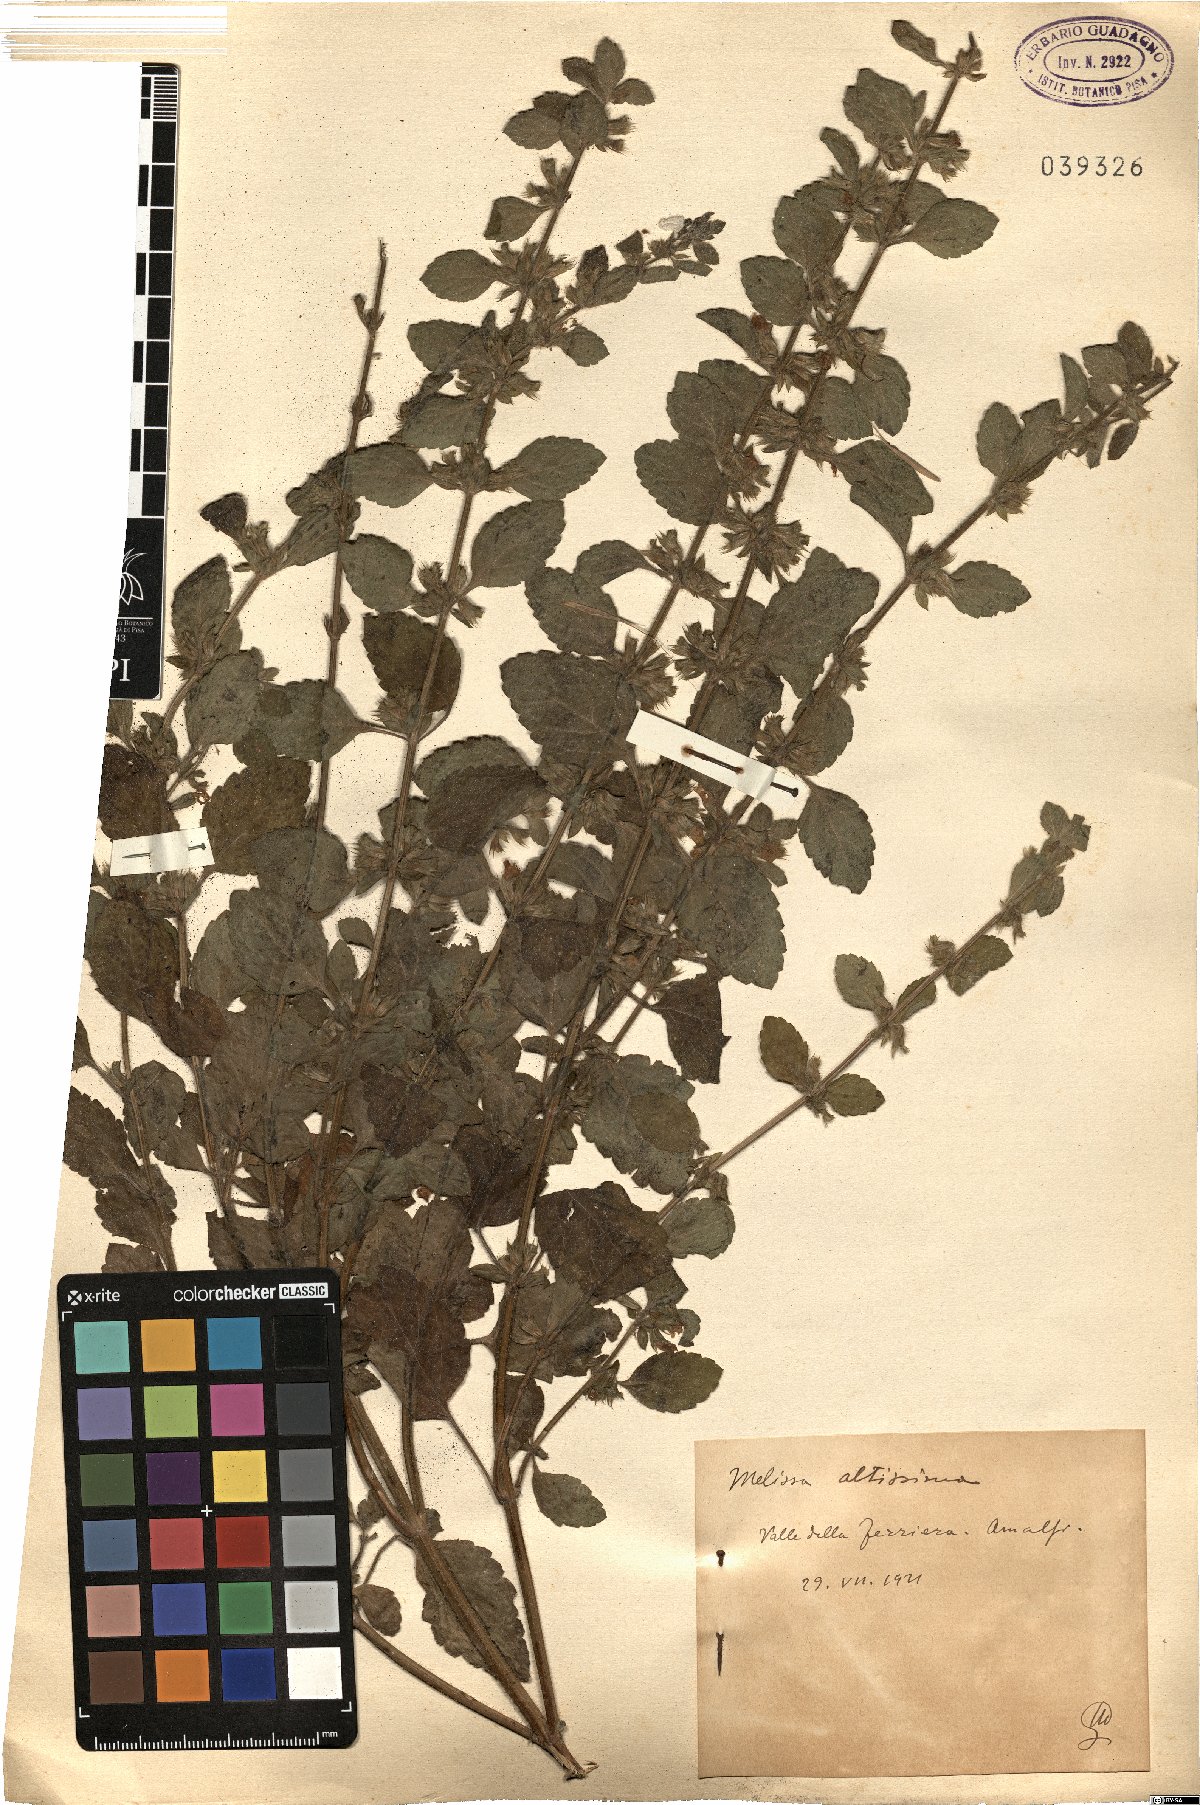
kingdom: Plantae
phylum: Tracheophyta
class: Magnoliopsida
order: Lamiales
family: Lamiaceae
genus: Melissa
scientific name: Melissa officinalis
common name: Balm
